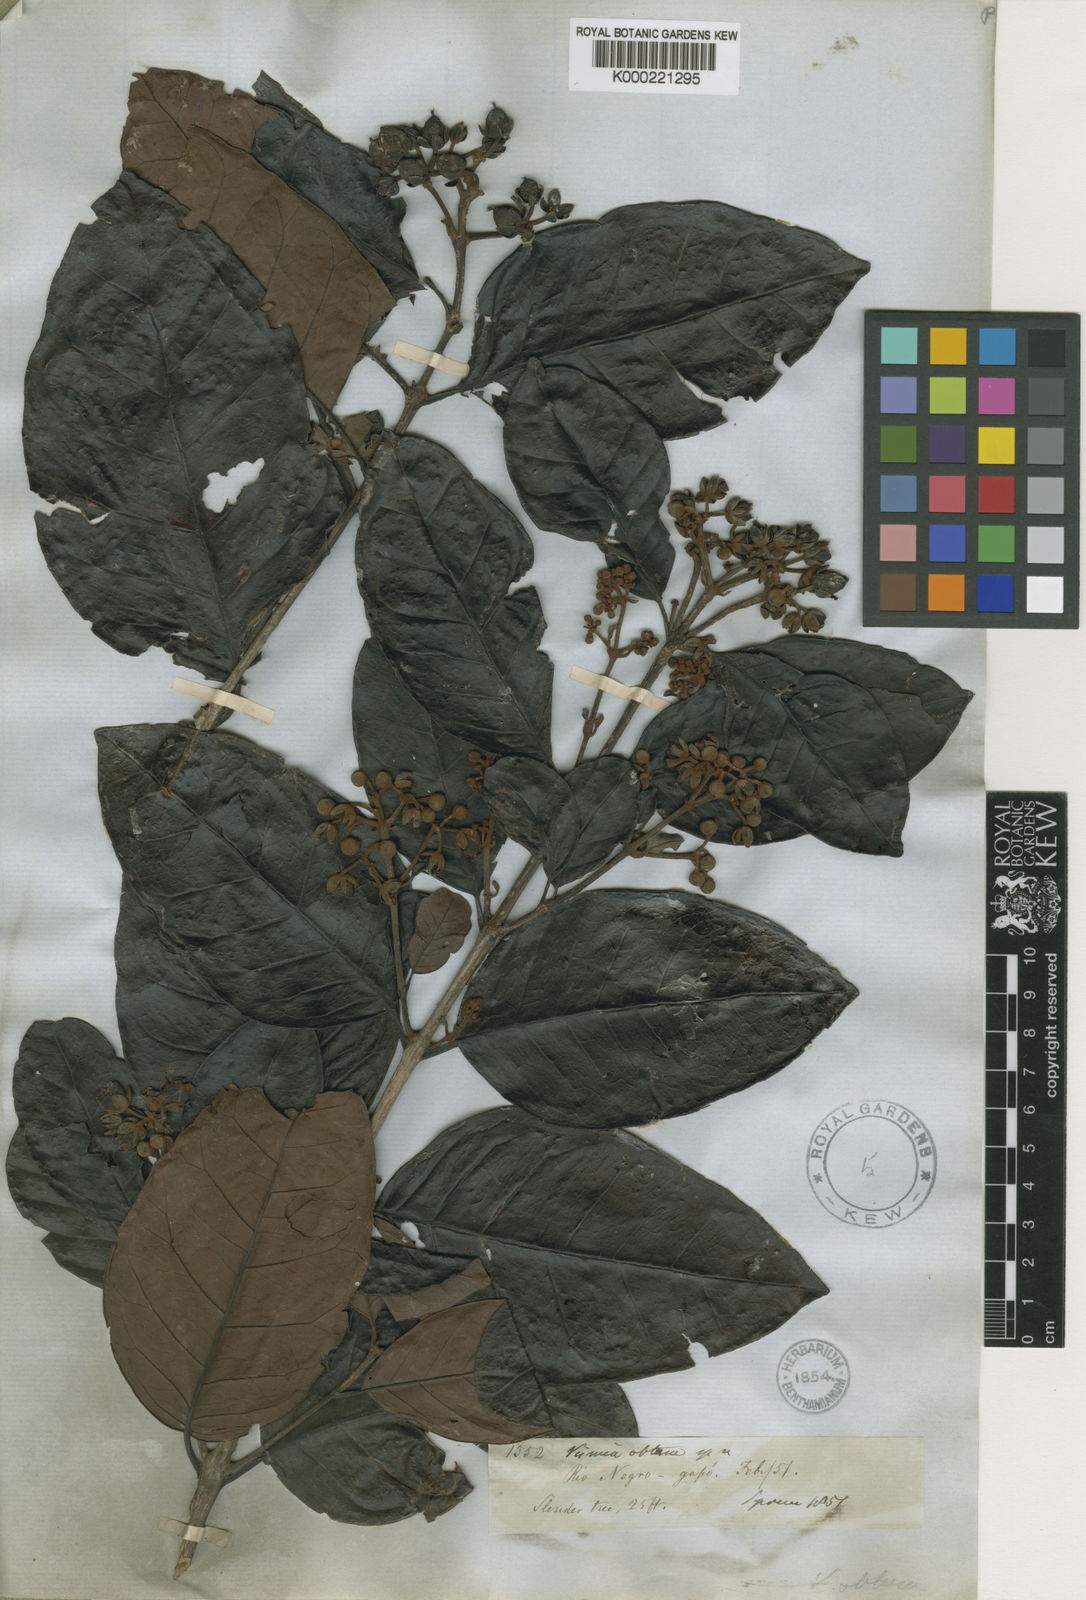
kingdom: Plantae
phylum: Tracheophyta
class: Magnoliopsida
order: Malpighiales
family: Hypericaceae
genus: Vismia
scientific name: Vismia obtusa
